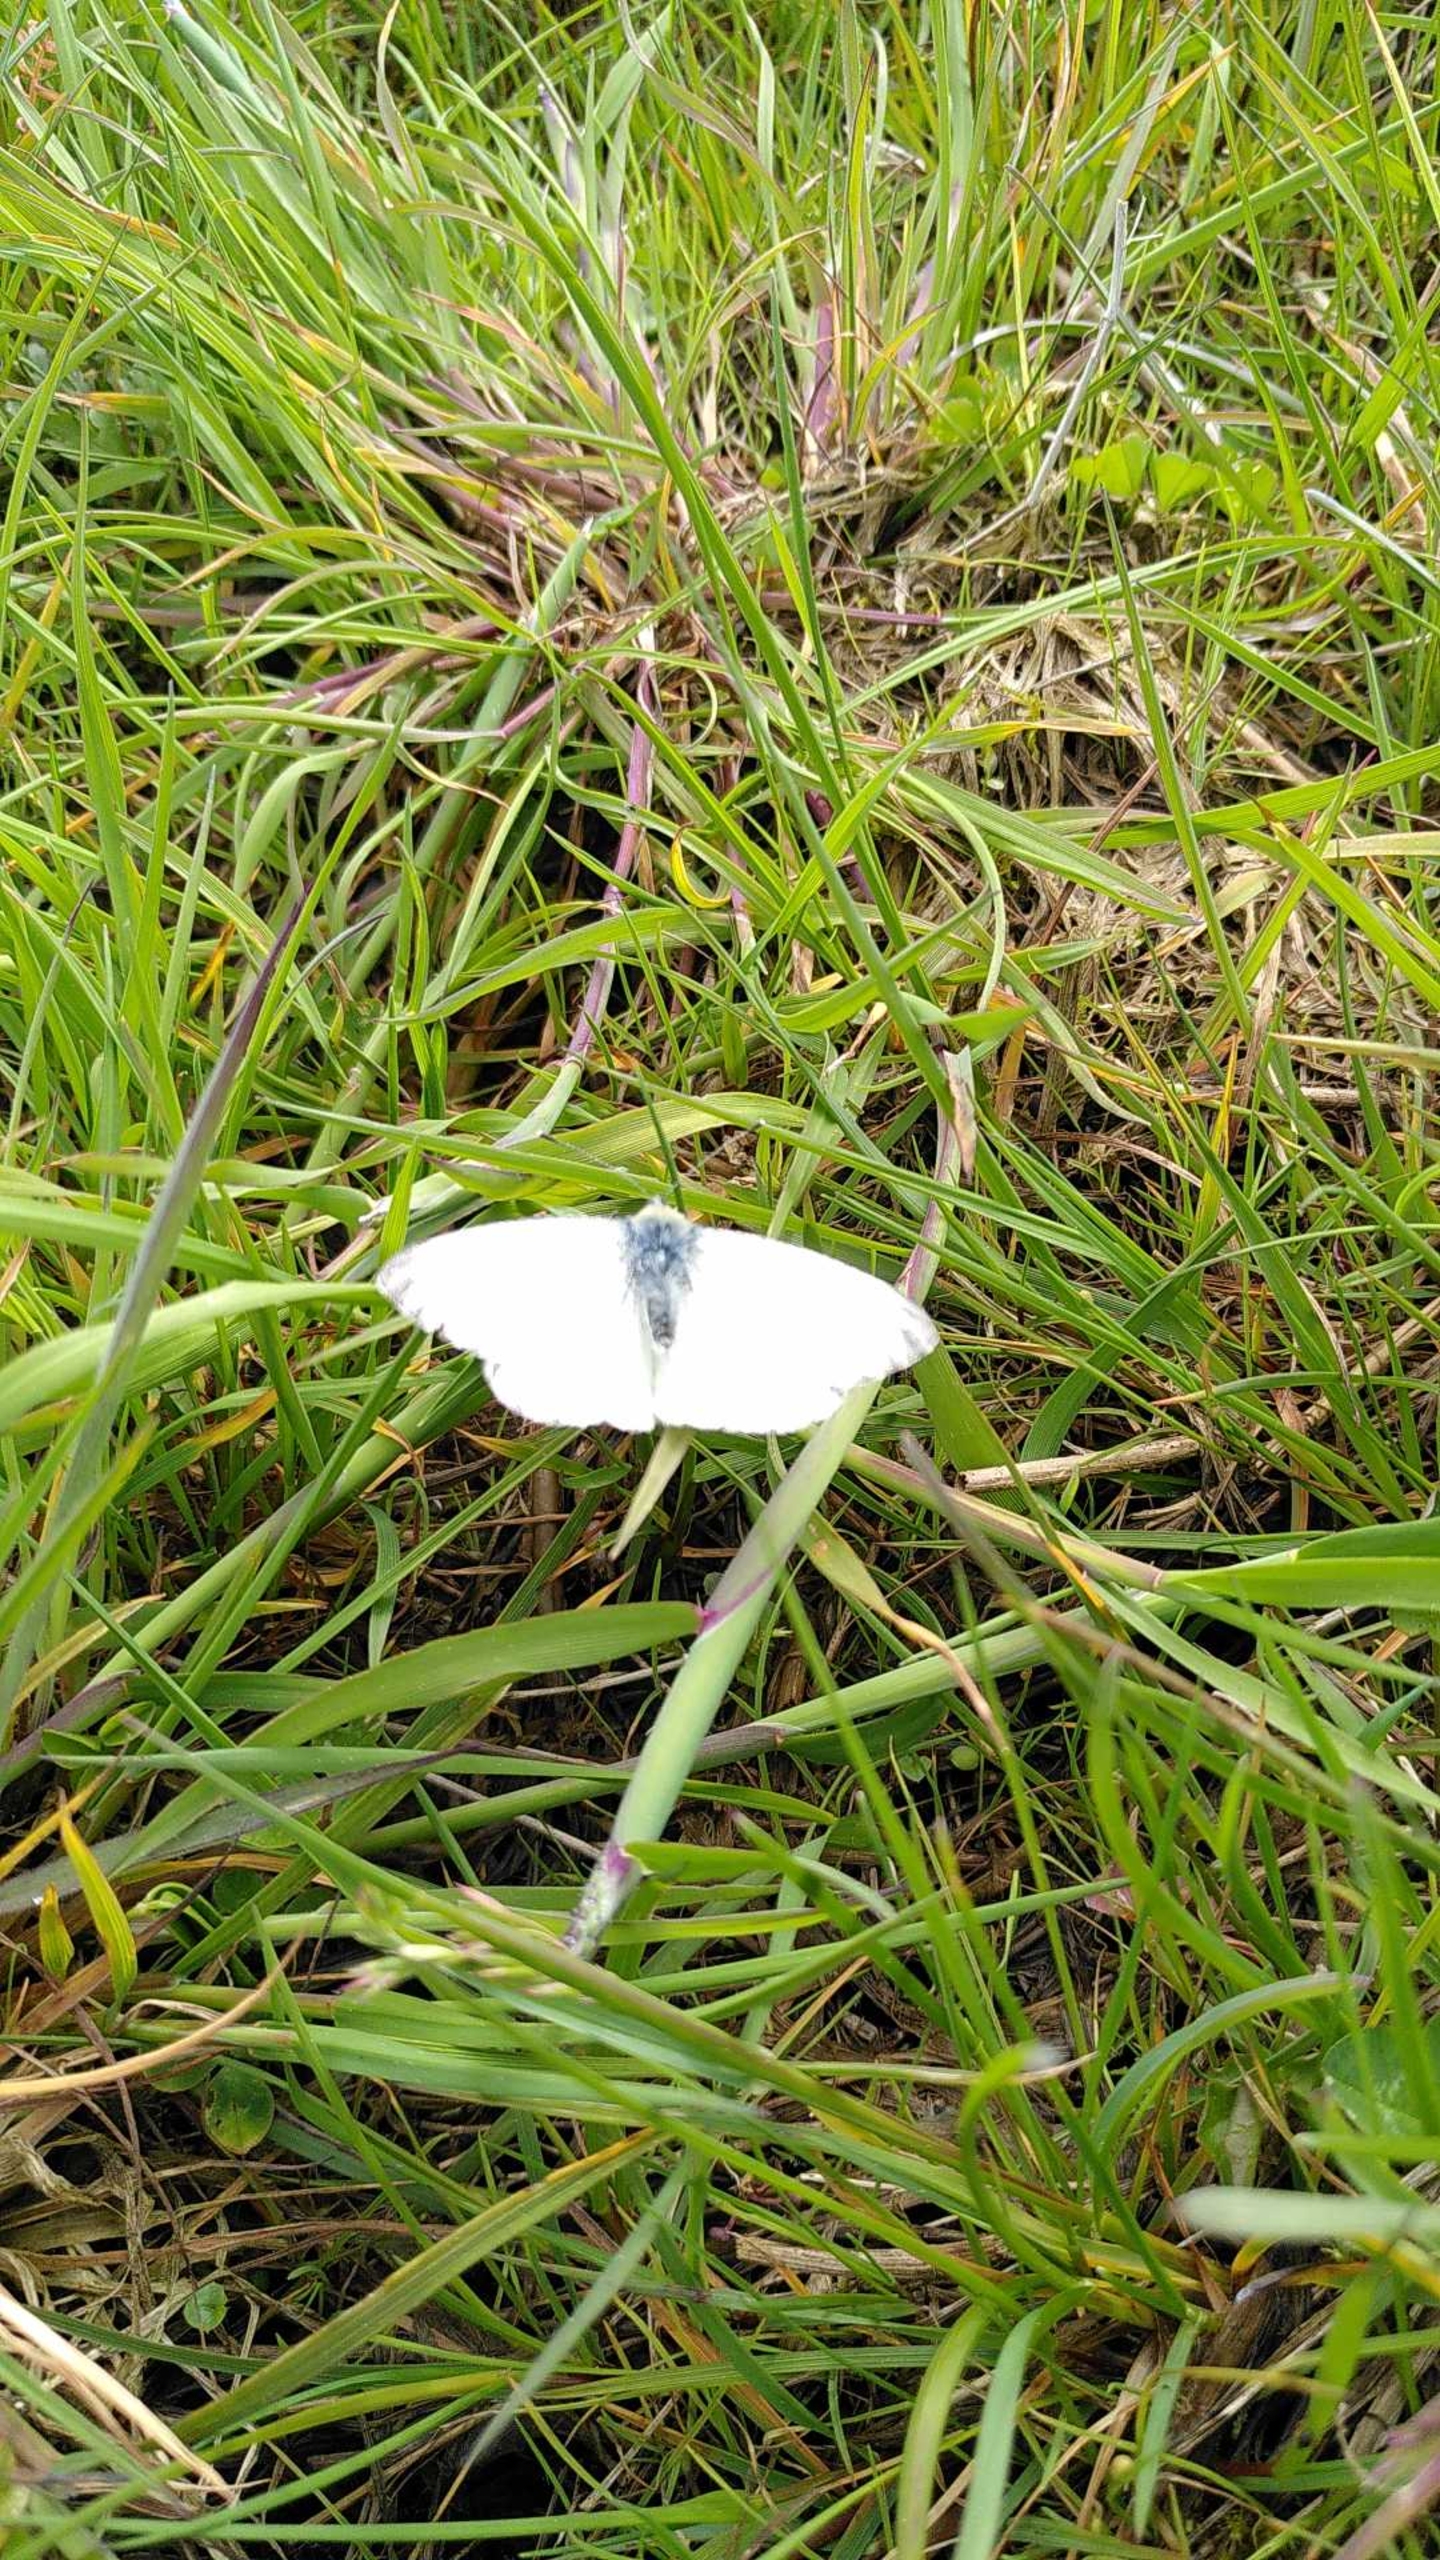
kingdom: Animalia
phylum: Arthropoda
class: Insecta
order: Lepidoptera
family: Pieridae
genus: Pieris
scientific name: Pieris napi
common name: Grønåret kålsommerfugl
